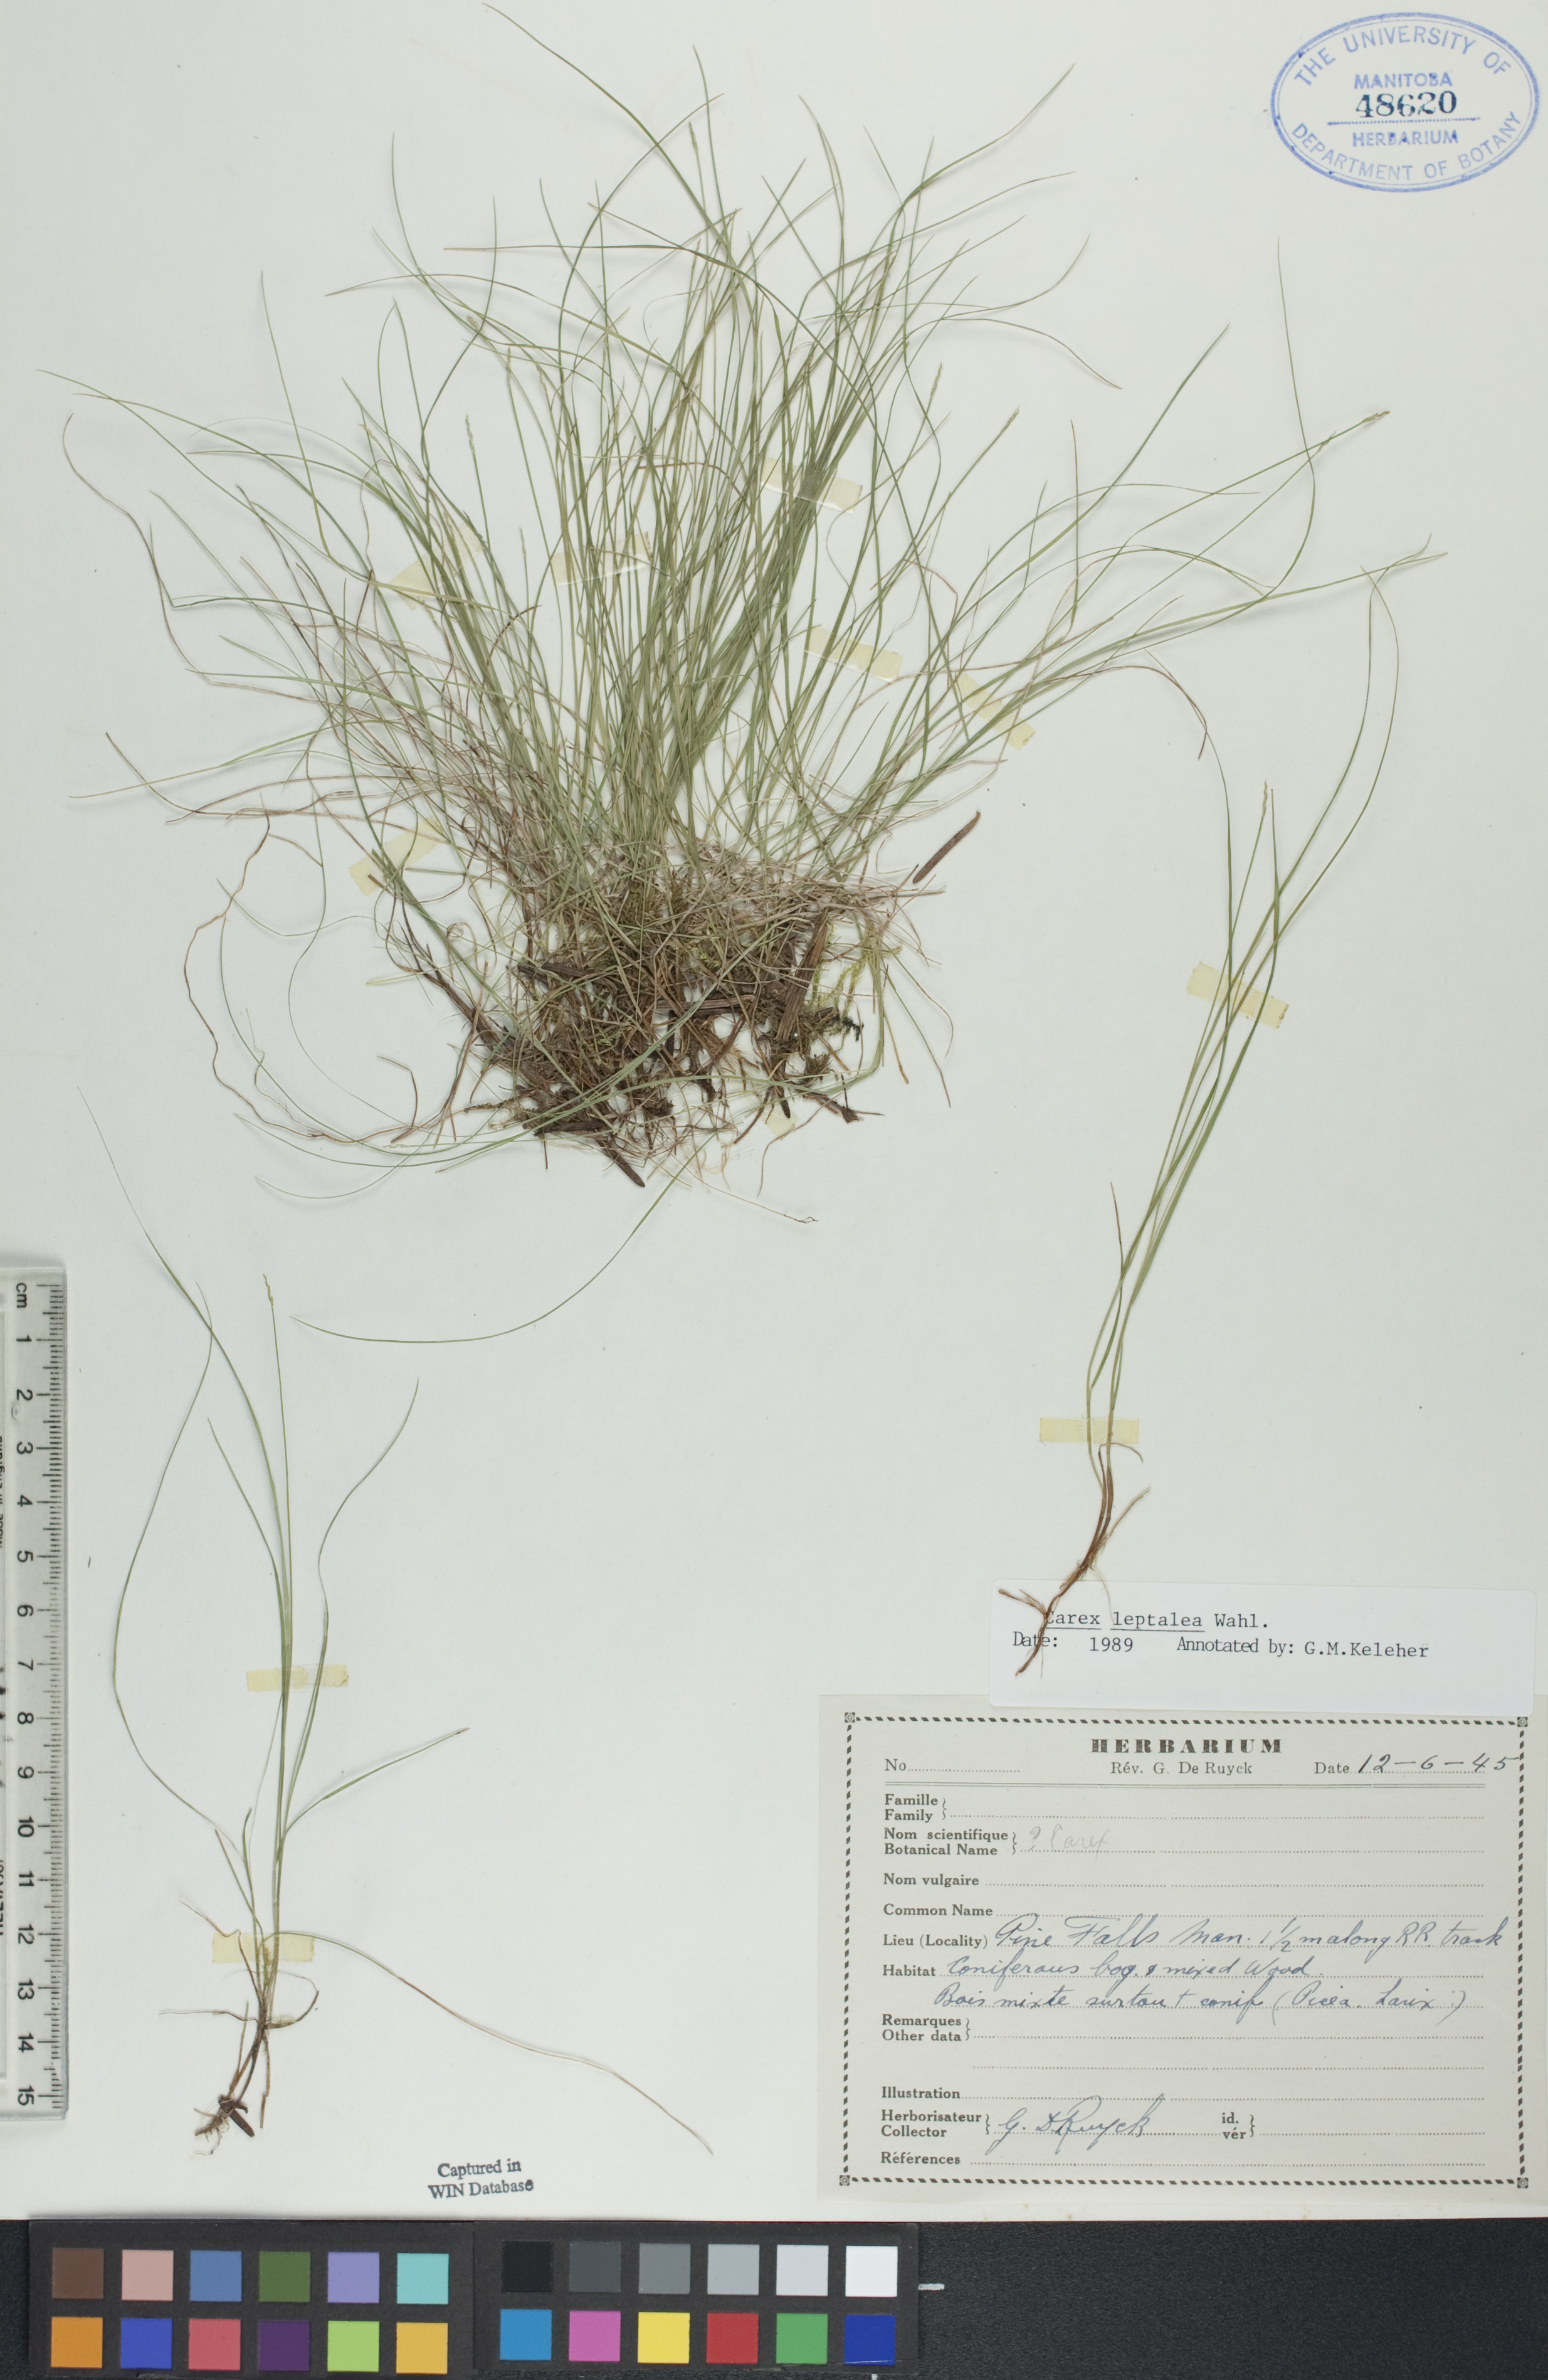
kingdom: Plantae
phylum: Tracheophyta
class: Liliopsida
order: Poales
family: Cyperaceae
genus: Carex
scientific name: Carex leptalea
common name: Bristly-stalked sedge
